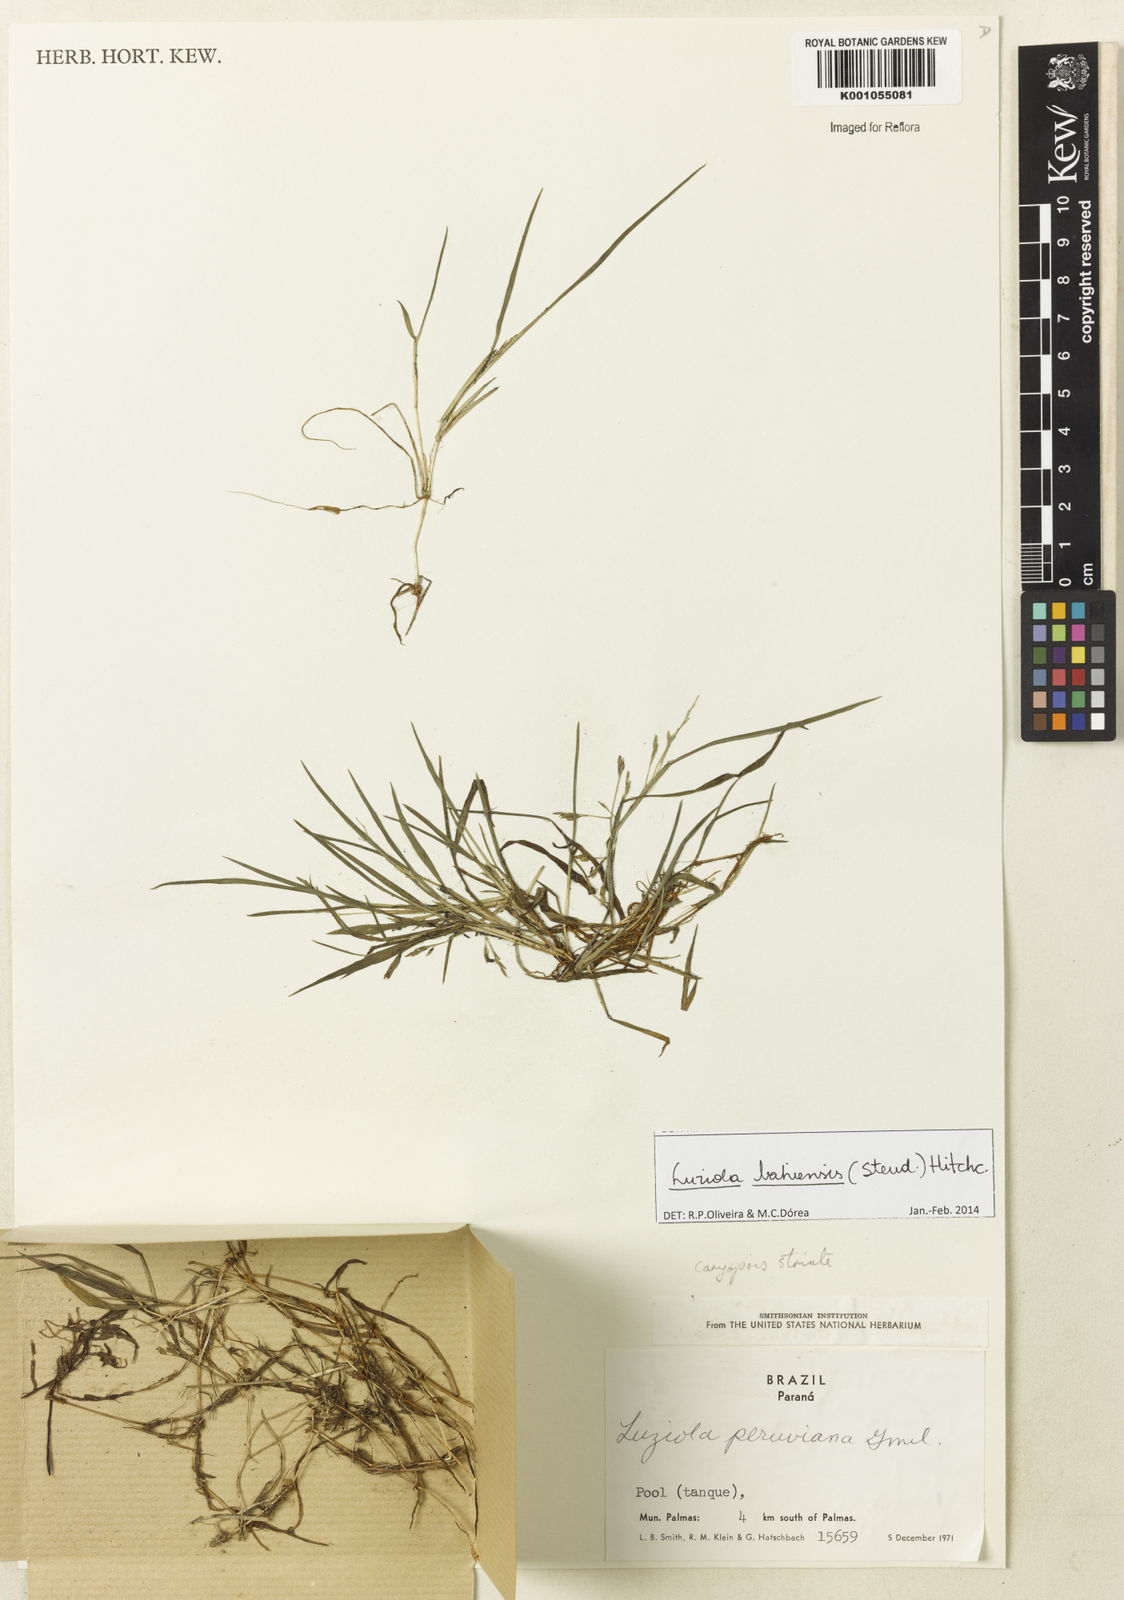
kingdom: Plantae
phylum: Tracheophyta
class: Liliopsida
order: Poales
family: Poaceae
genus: Luziola
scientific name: Luziola bahiensis
